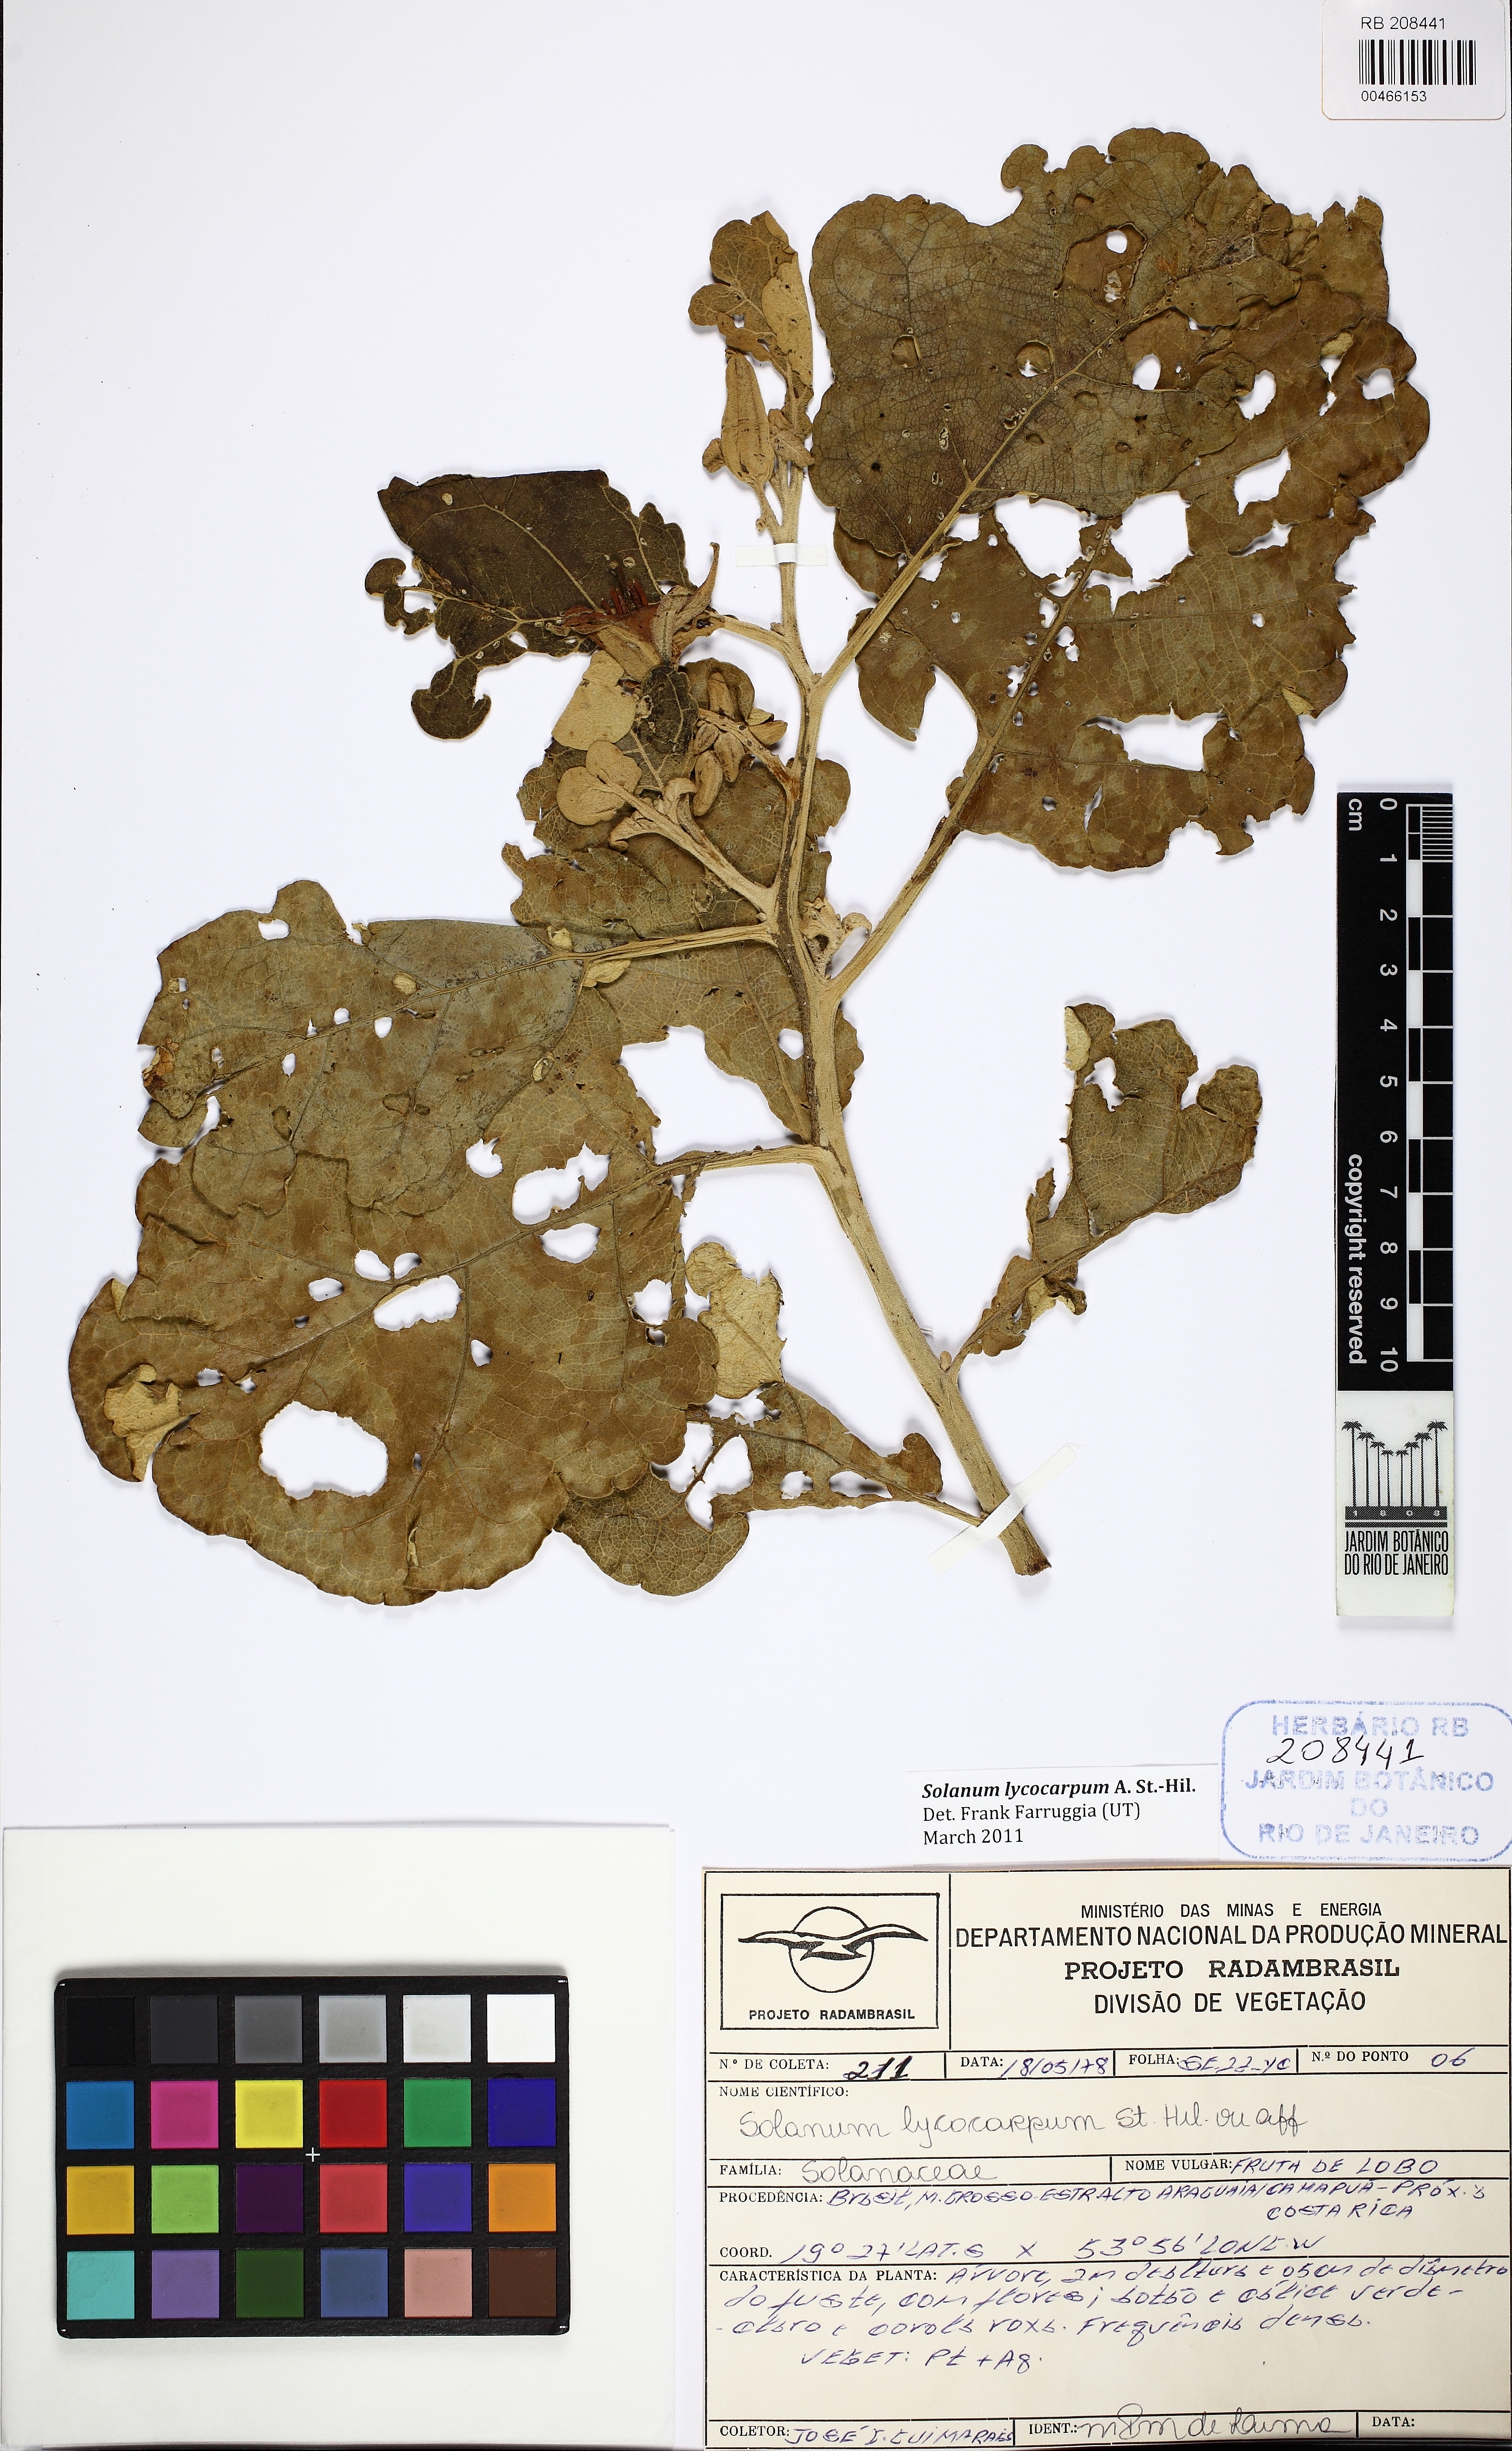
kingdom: Plantae
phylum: Tracheophyta
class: Magnoliopsida
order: Solanales
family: Solanaceae
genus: Solanum
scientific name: Solanum lycocarpum
